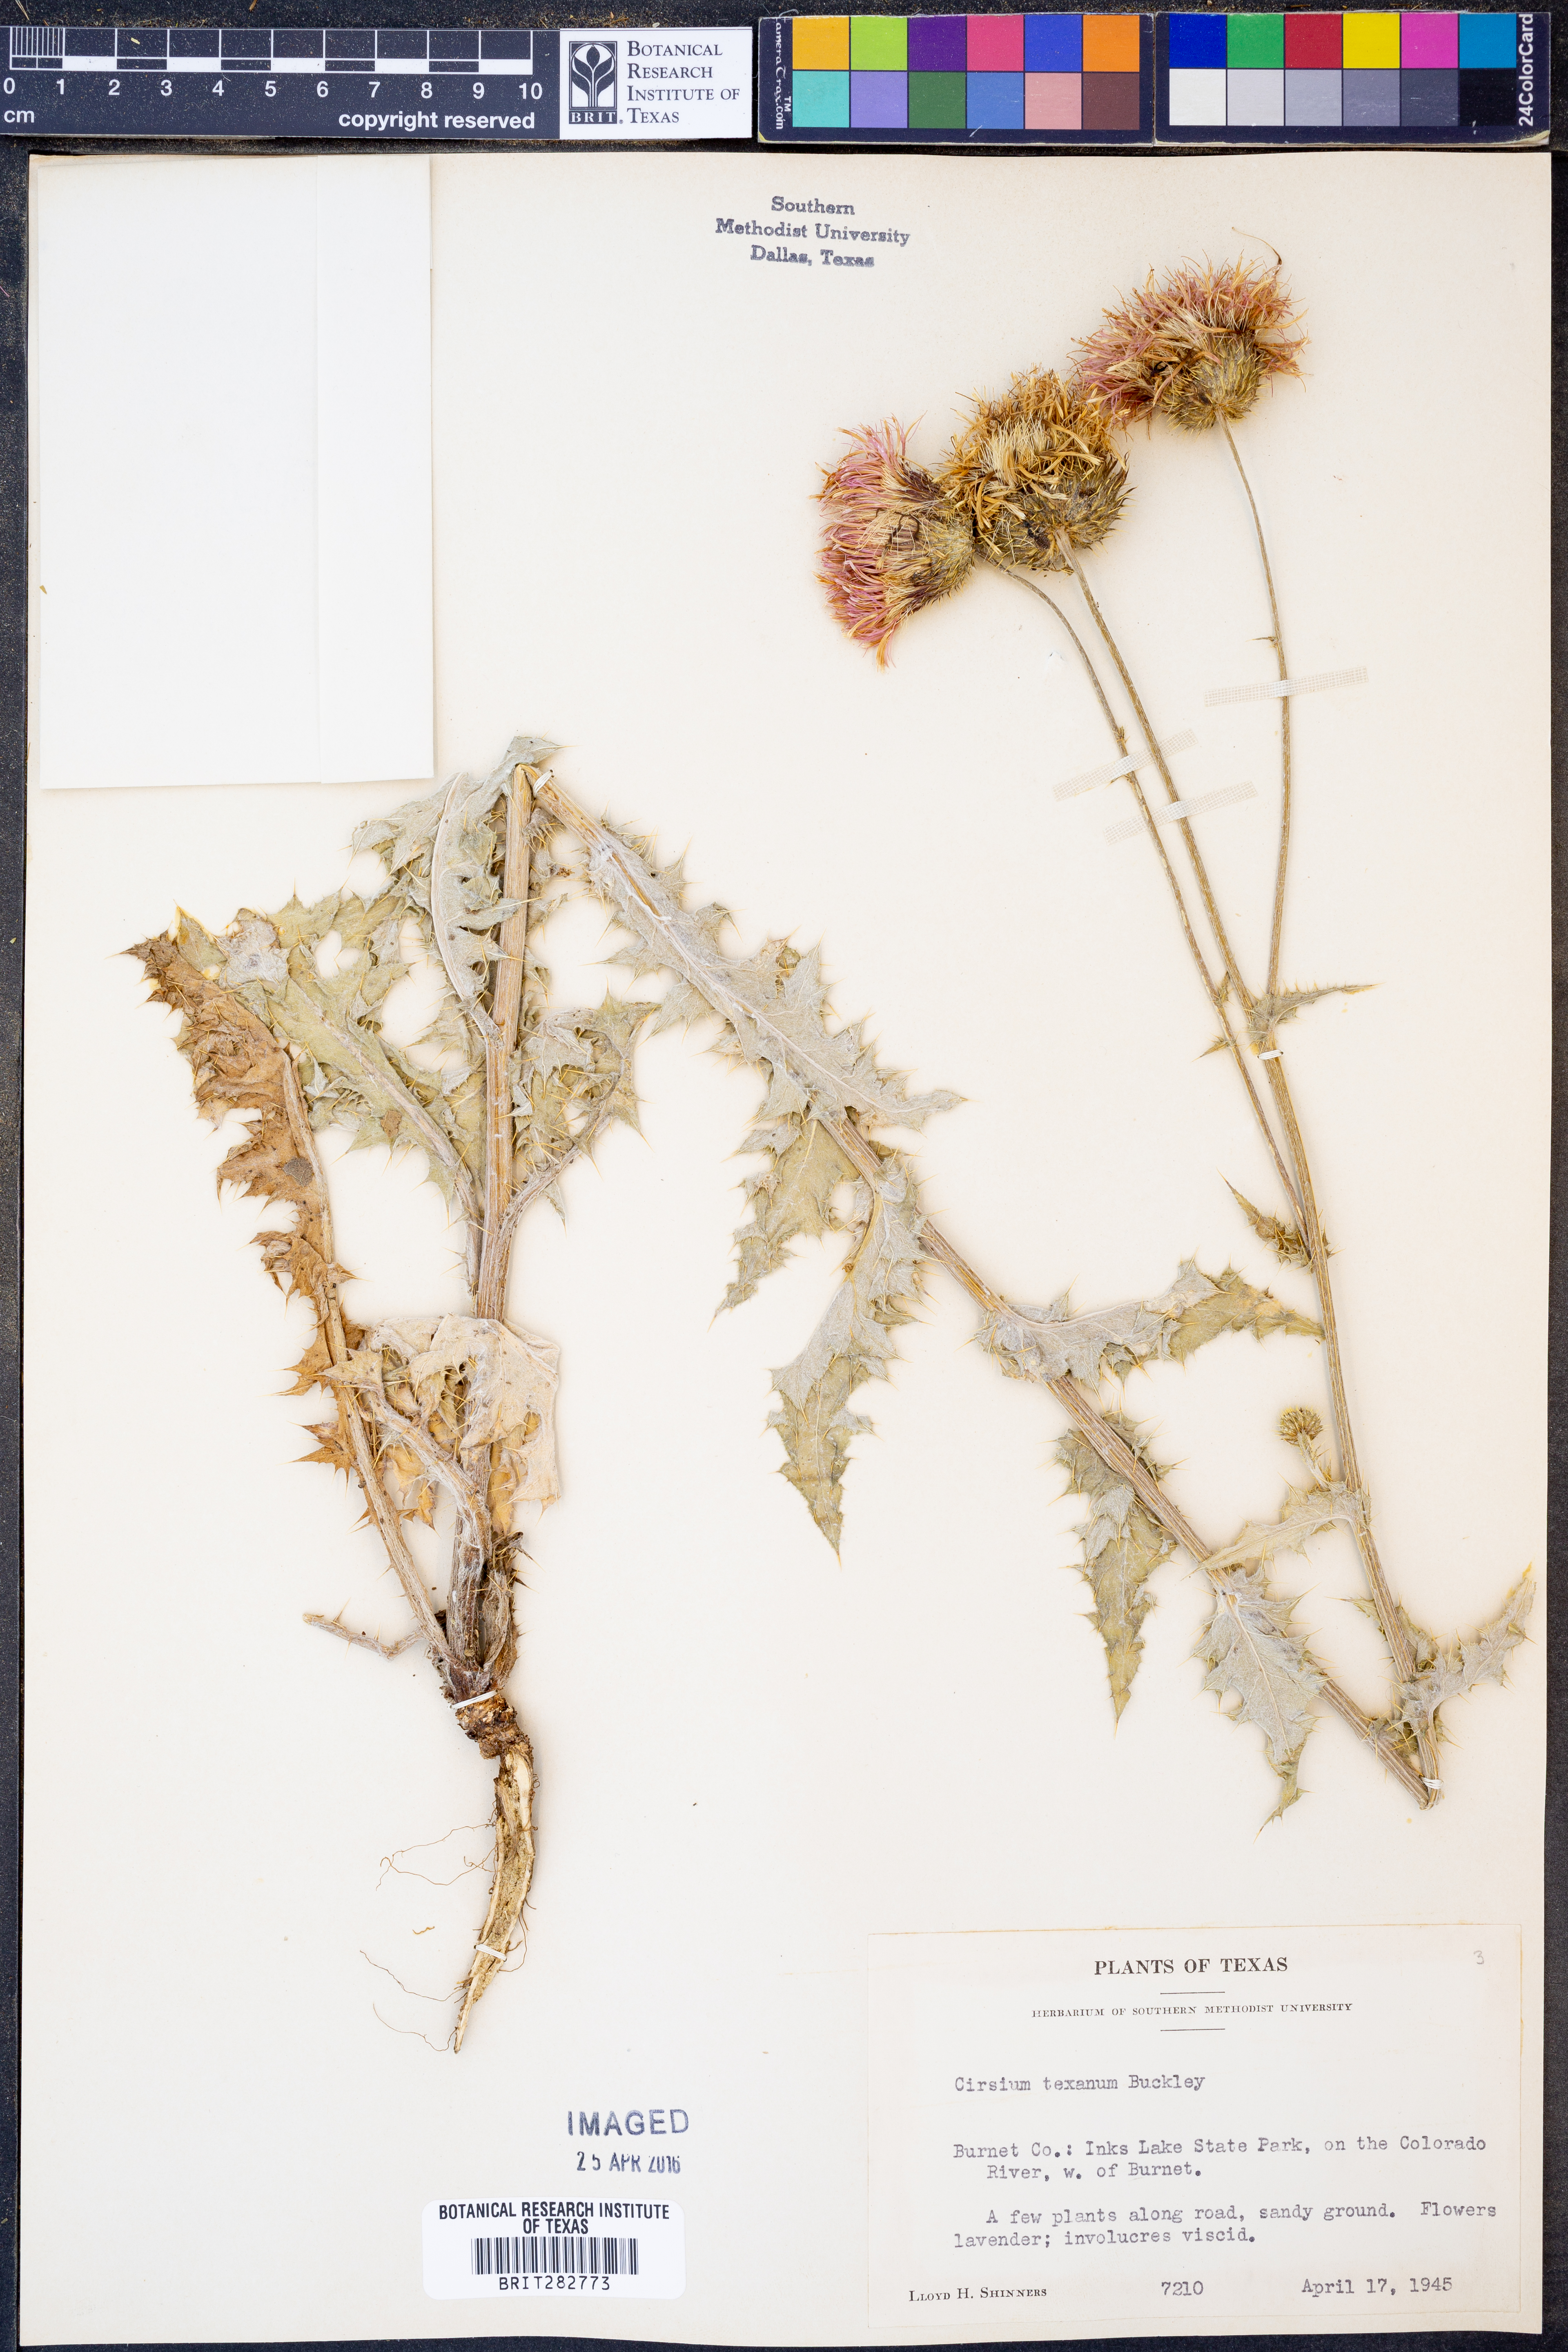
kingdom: Plantae
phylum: Tracheophyta
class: Magnoliopsida
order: Asterales
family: Asteraceae
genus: Cirsium
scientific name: Cirsium texanum
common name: Texas purple thistle
